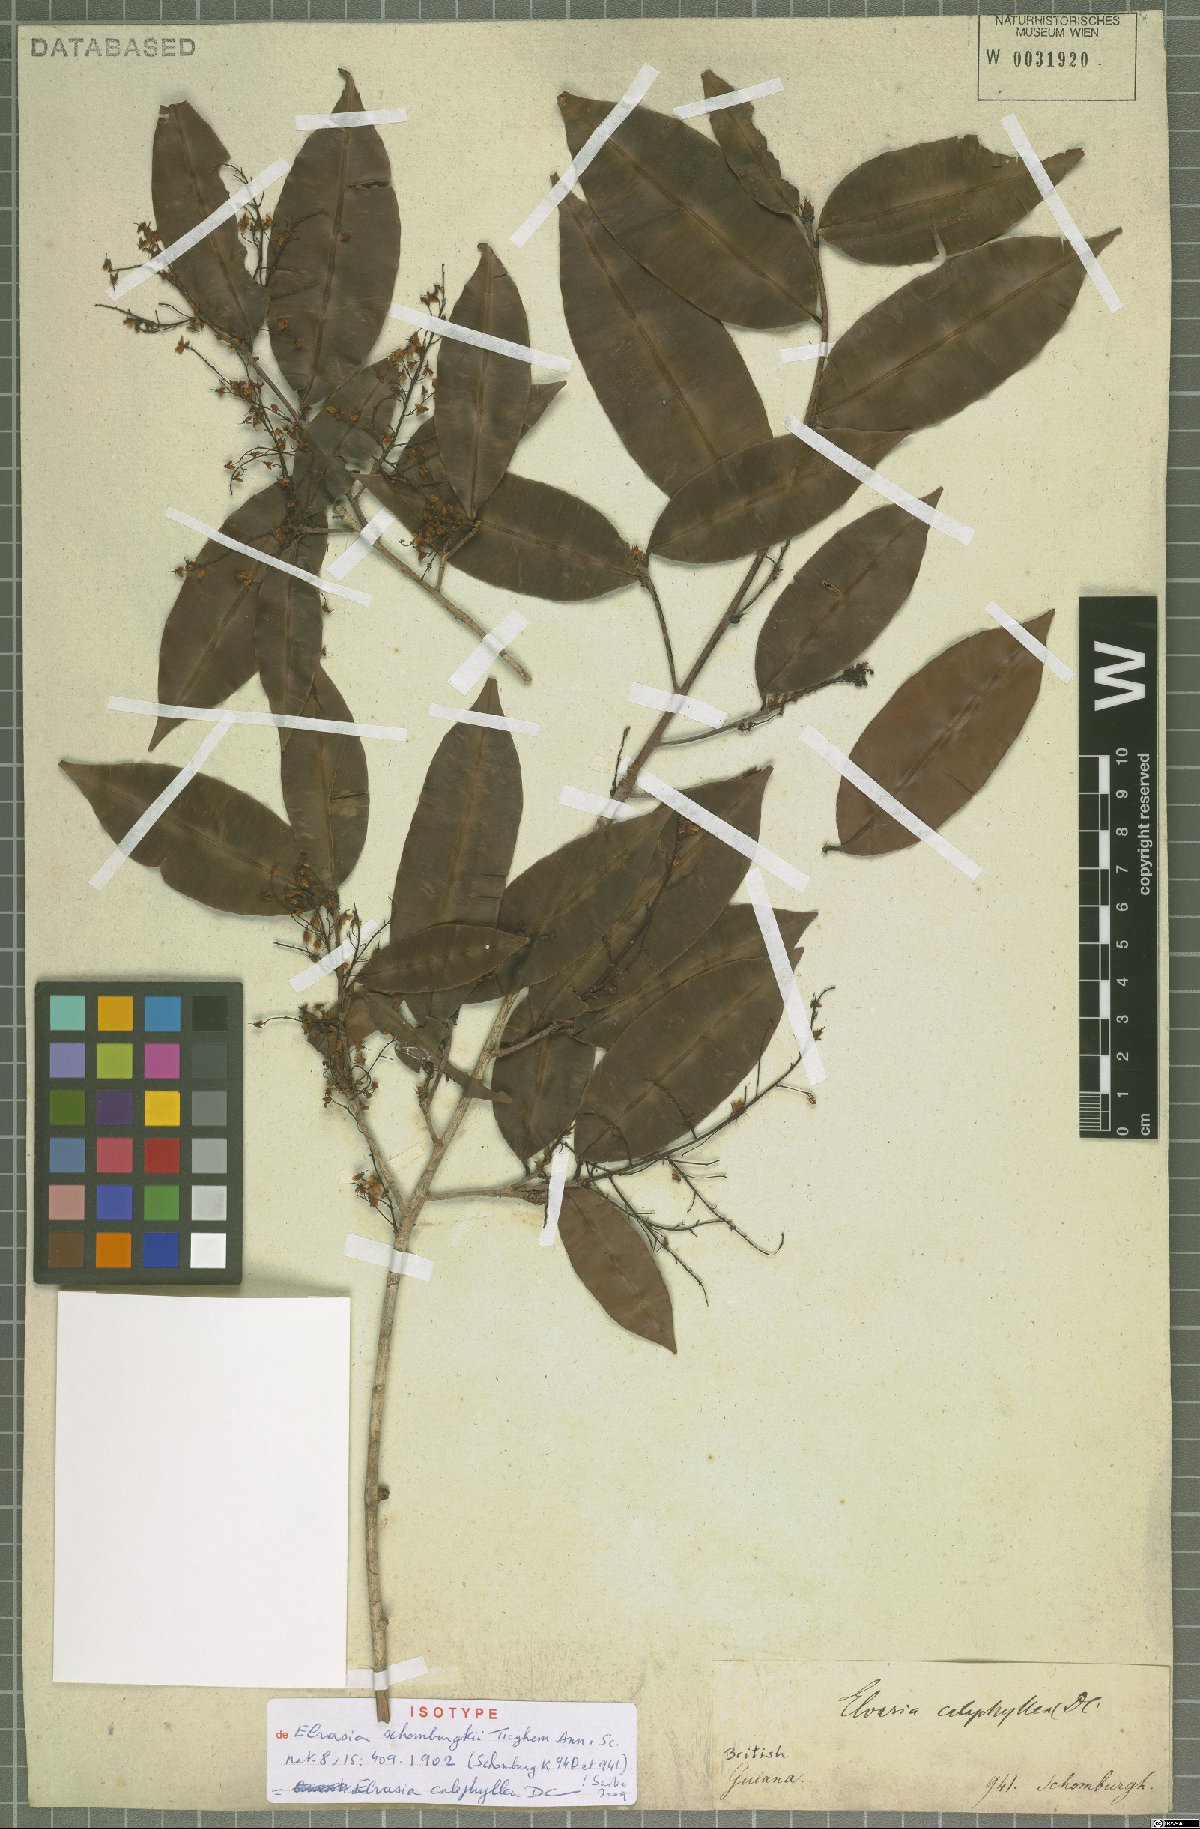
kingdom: Plantae
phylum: Tracheophyta
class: Magnoliopsida
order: Malpighiales
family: Ochnaceae
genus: Elvasia
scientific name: Elvasia calophyllea
